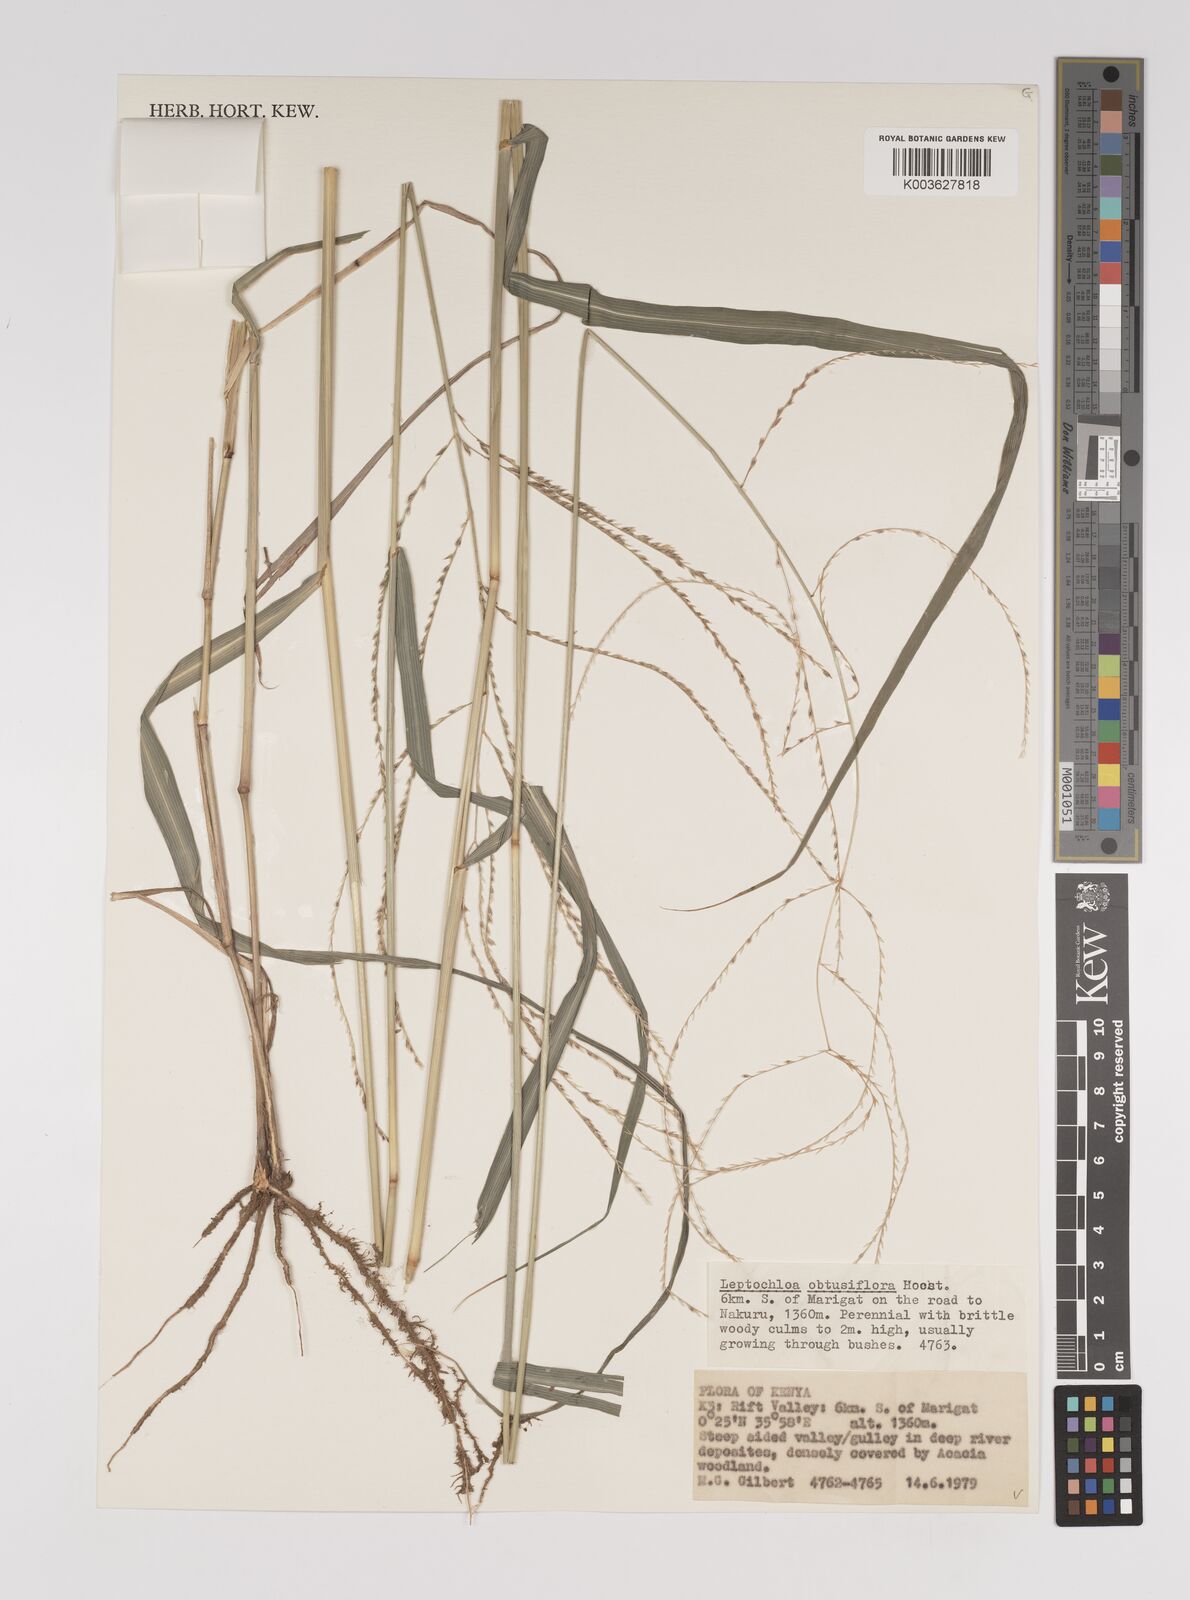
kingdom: Plantae
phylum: Tracheophyta
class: Liliopsida
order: Poales
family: Poaceae
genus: Disakisperma
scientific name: Disakisperma obtusiflorum
